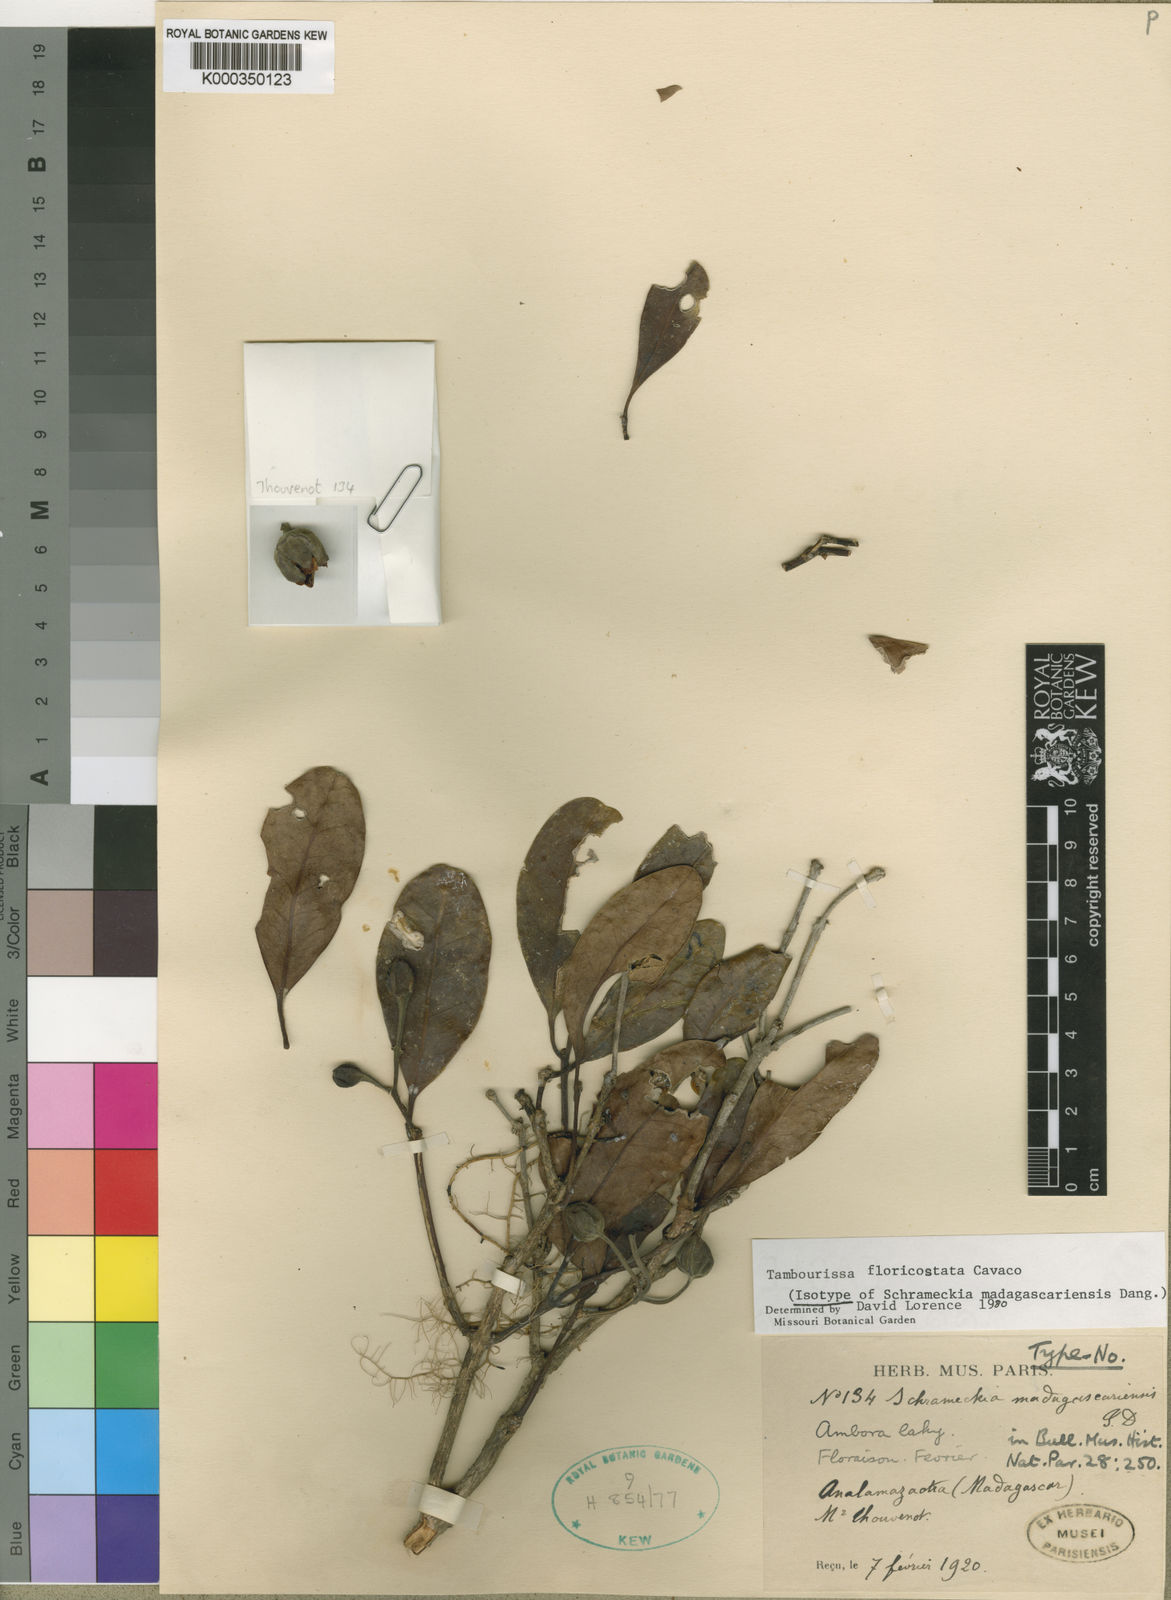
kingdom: Plantae
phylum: Tracheophyta
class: Magnoliopsida
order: Laurales
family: Monimiaceae
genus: Tambourissa
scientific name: Tambourissa floricostata
